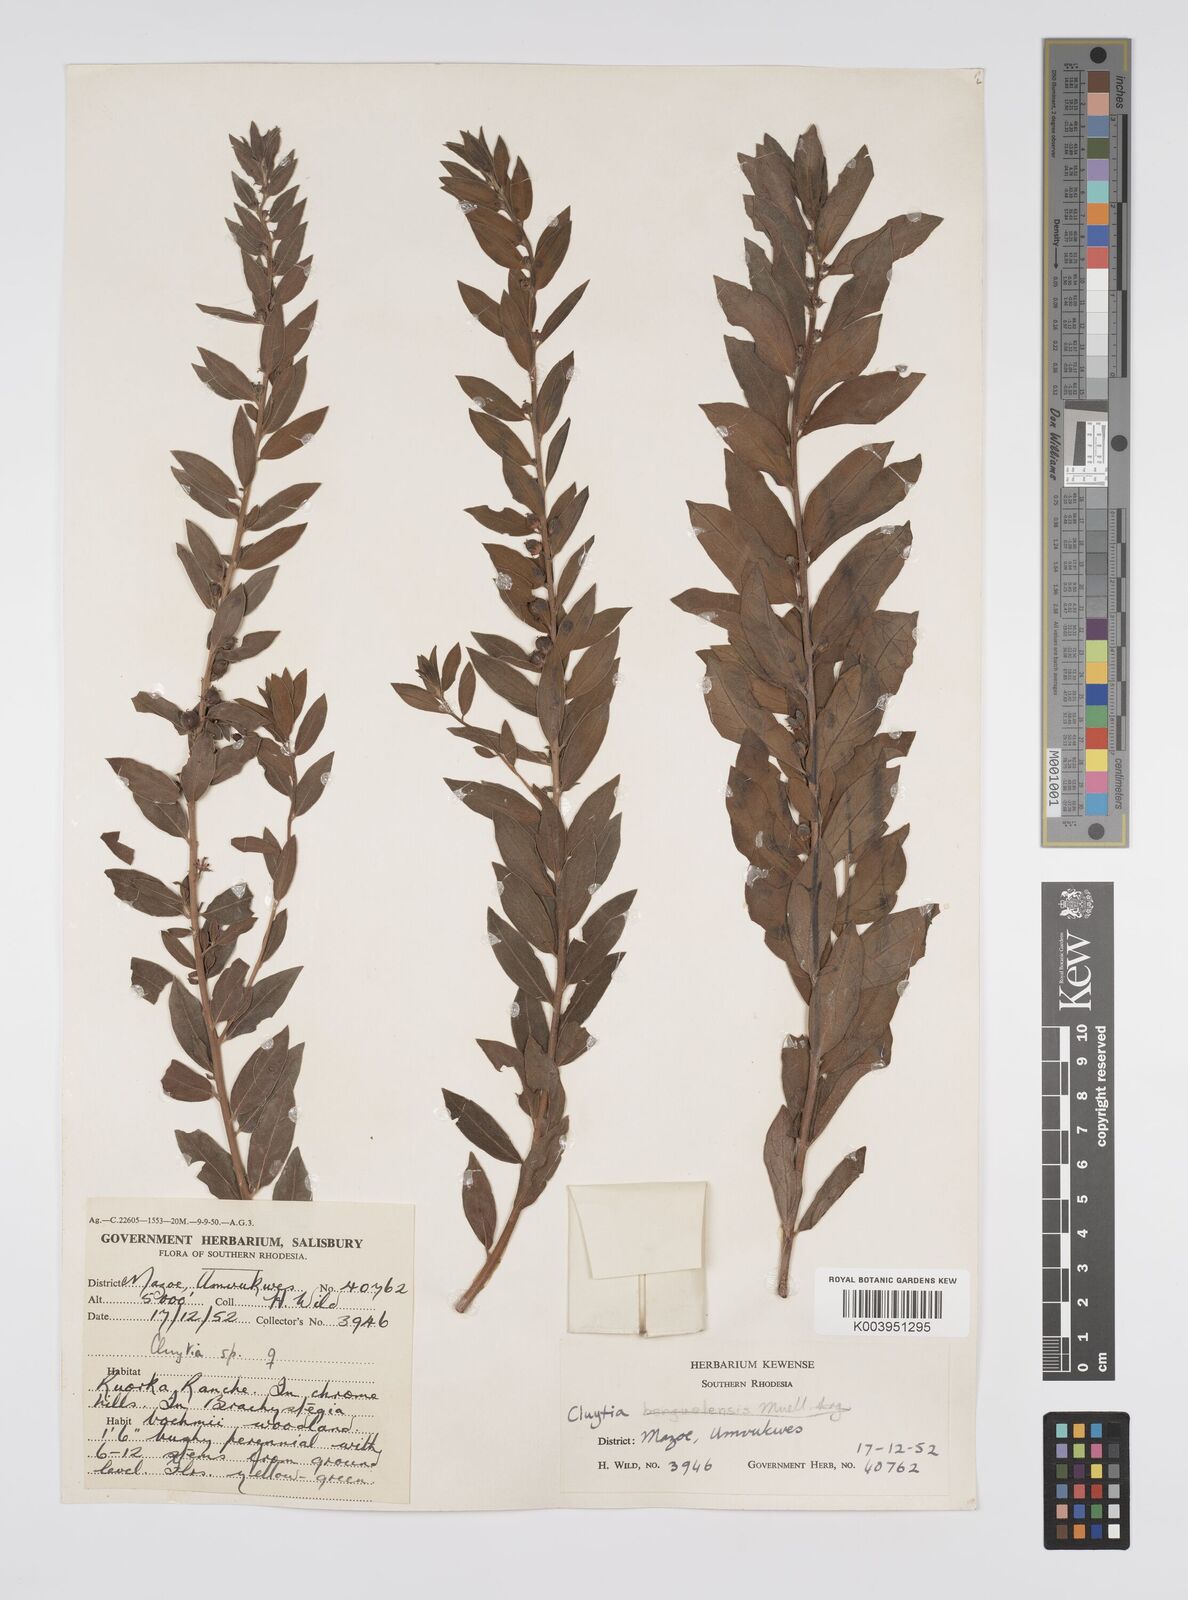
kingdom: Plantae
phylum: Tracheophyta
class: Magnoliopsida
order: Malpighiales
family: Peraceae
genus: Clutia
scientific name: Clutia hirsuta
